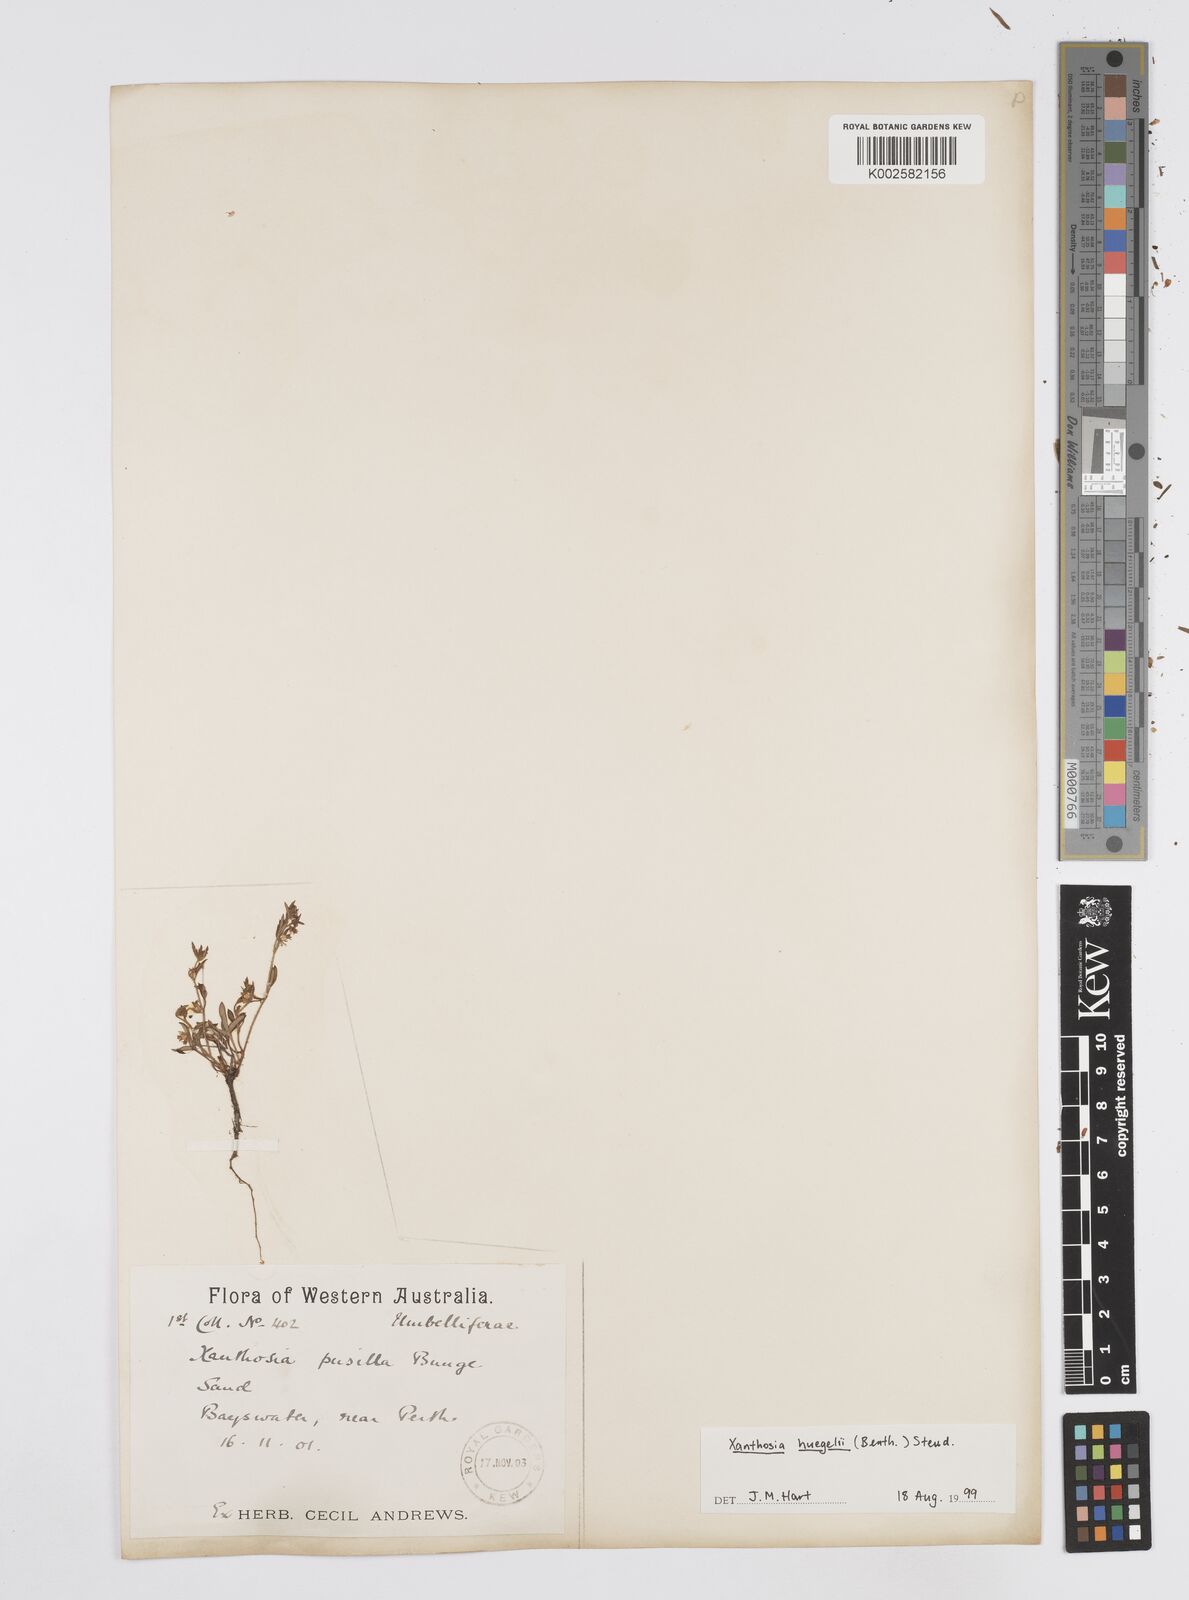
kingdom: Plantae
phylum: Tracheophyta
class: Magnoliopsida
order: Apiales
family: Apiaceae
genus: Xanthosia
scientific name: Xanthosia huegelii
